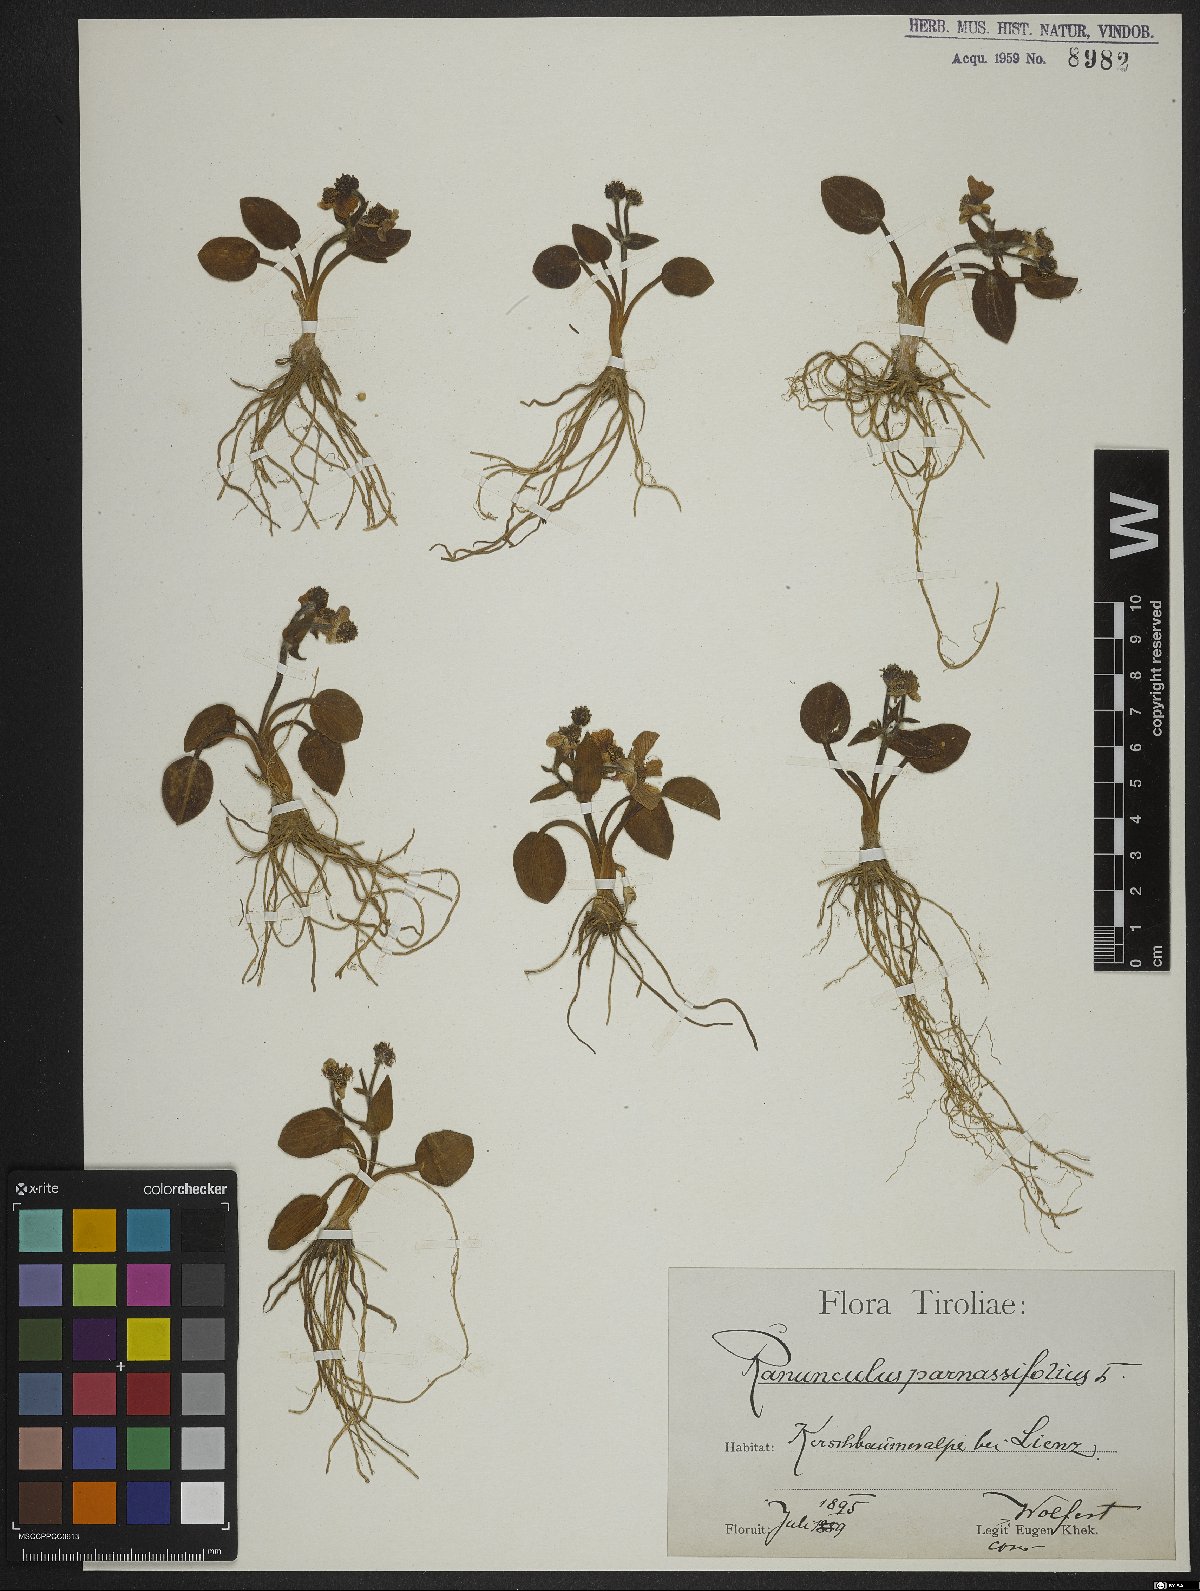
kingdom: Plantae
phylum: Tracheophyta
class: Magnoliopsida
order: Ranunculales
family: Ranunculaceae
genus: Ranunculus
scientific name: Ranunculus parnassiifolius
